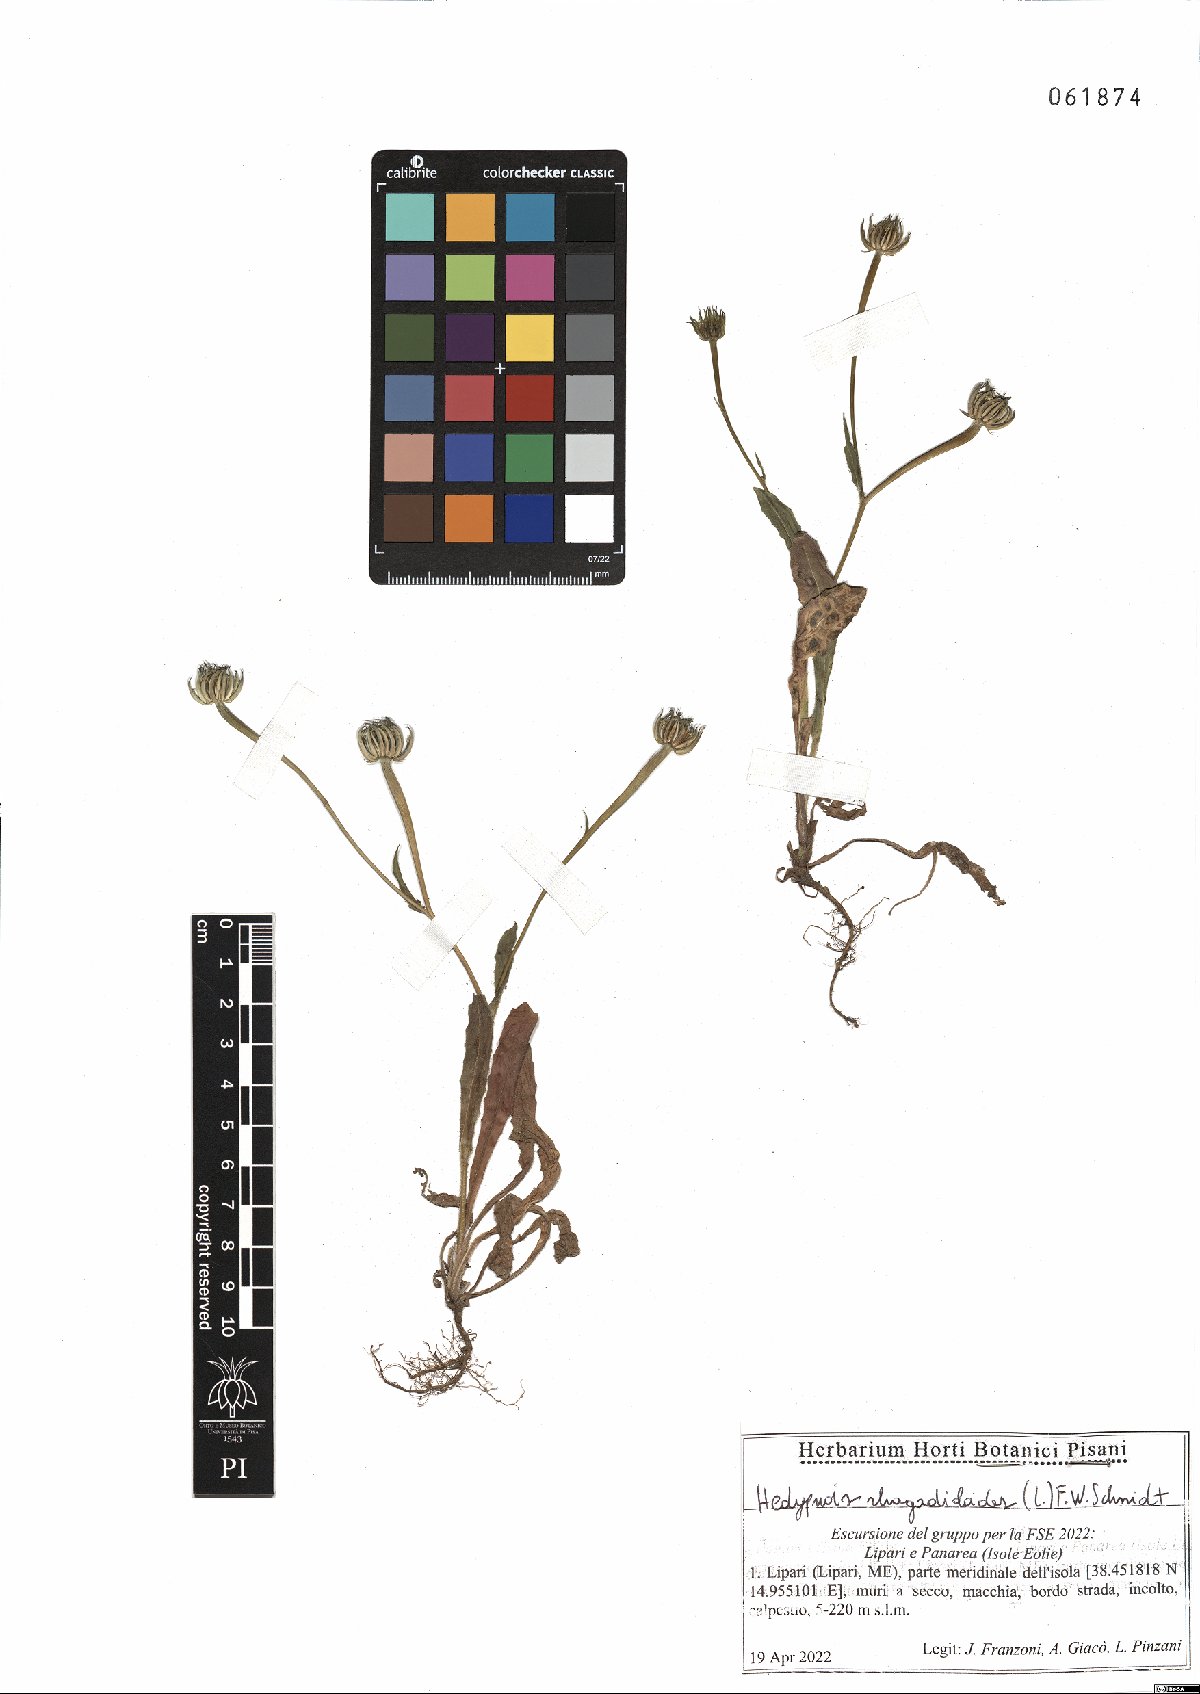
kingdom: Plantae
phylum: Tracheophyta
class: Magnoliopsida
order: Asterales
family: Asteraceae
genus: Hedypnois
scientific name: Hedypnois rhagadioloides
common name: Cretan weed
